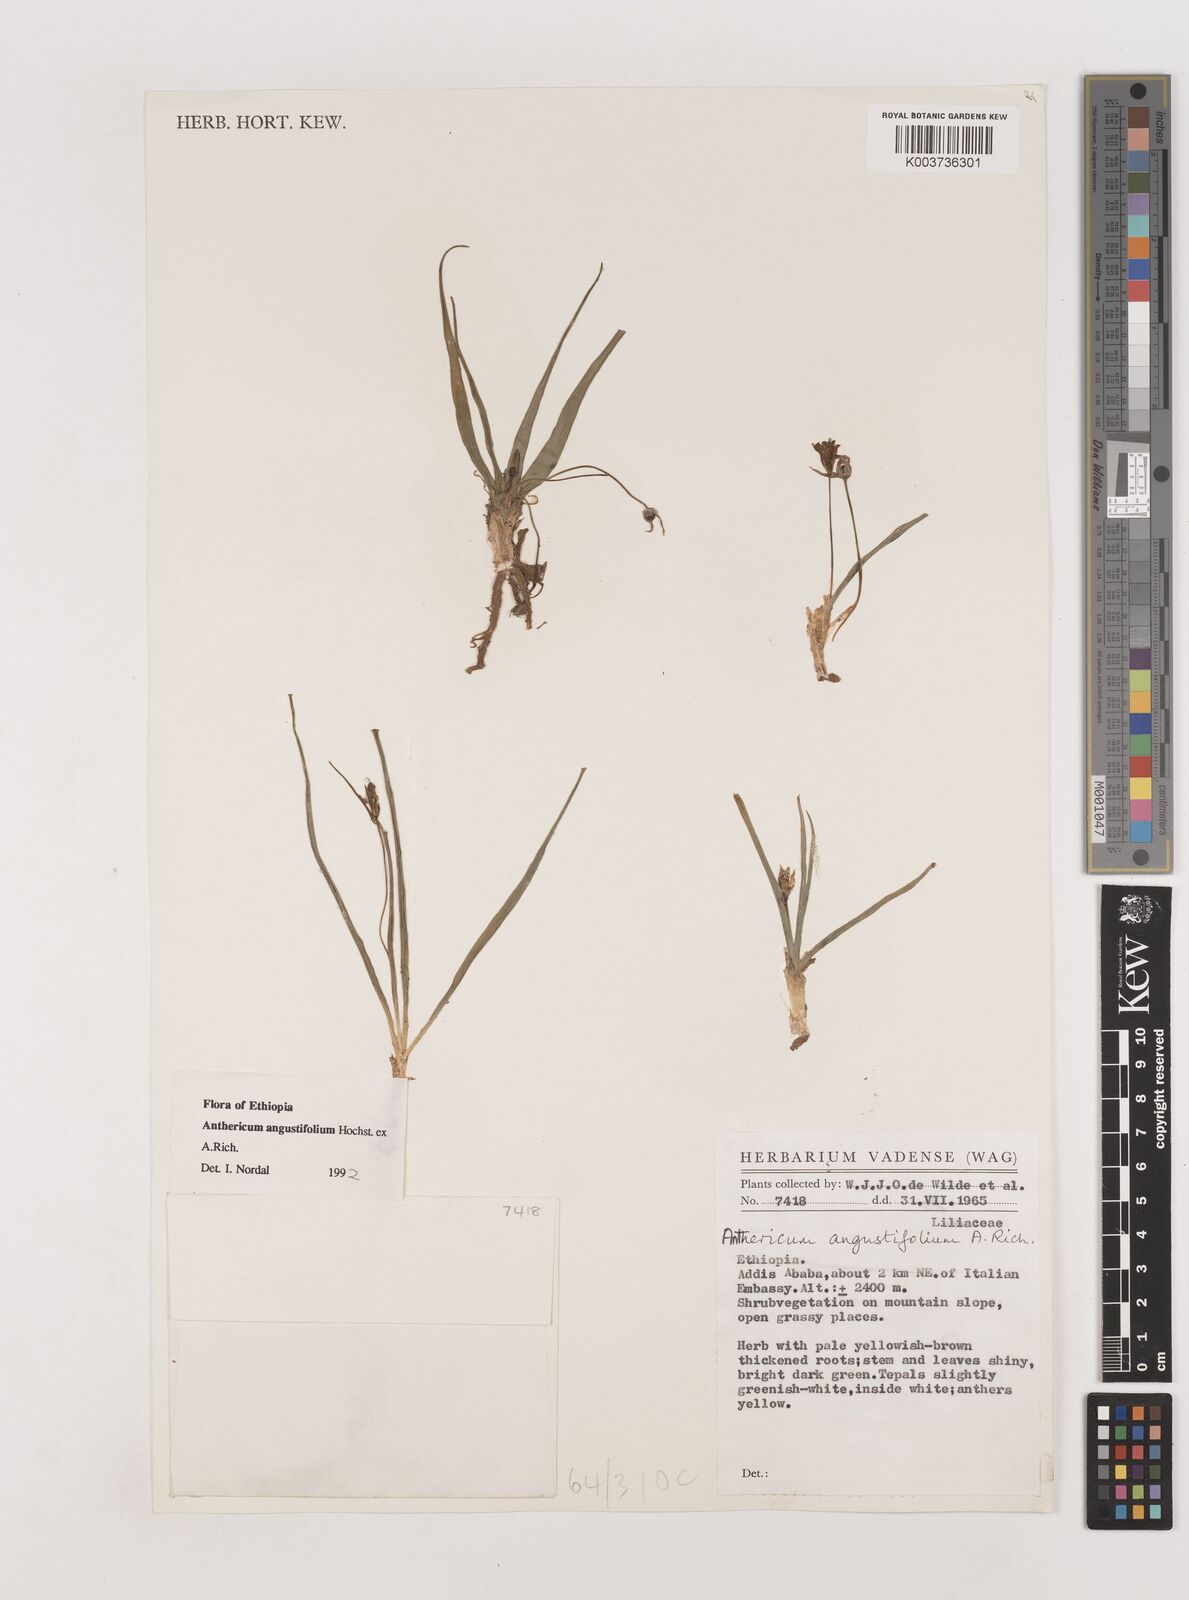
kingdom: Plantae
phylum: Tracheophyta
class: Liliopsida
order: Asparagales
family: Asparagaceae
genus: Anthericum
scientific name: Anthericum angustifolium
